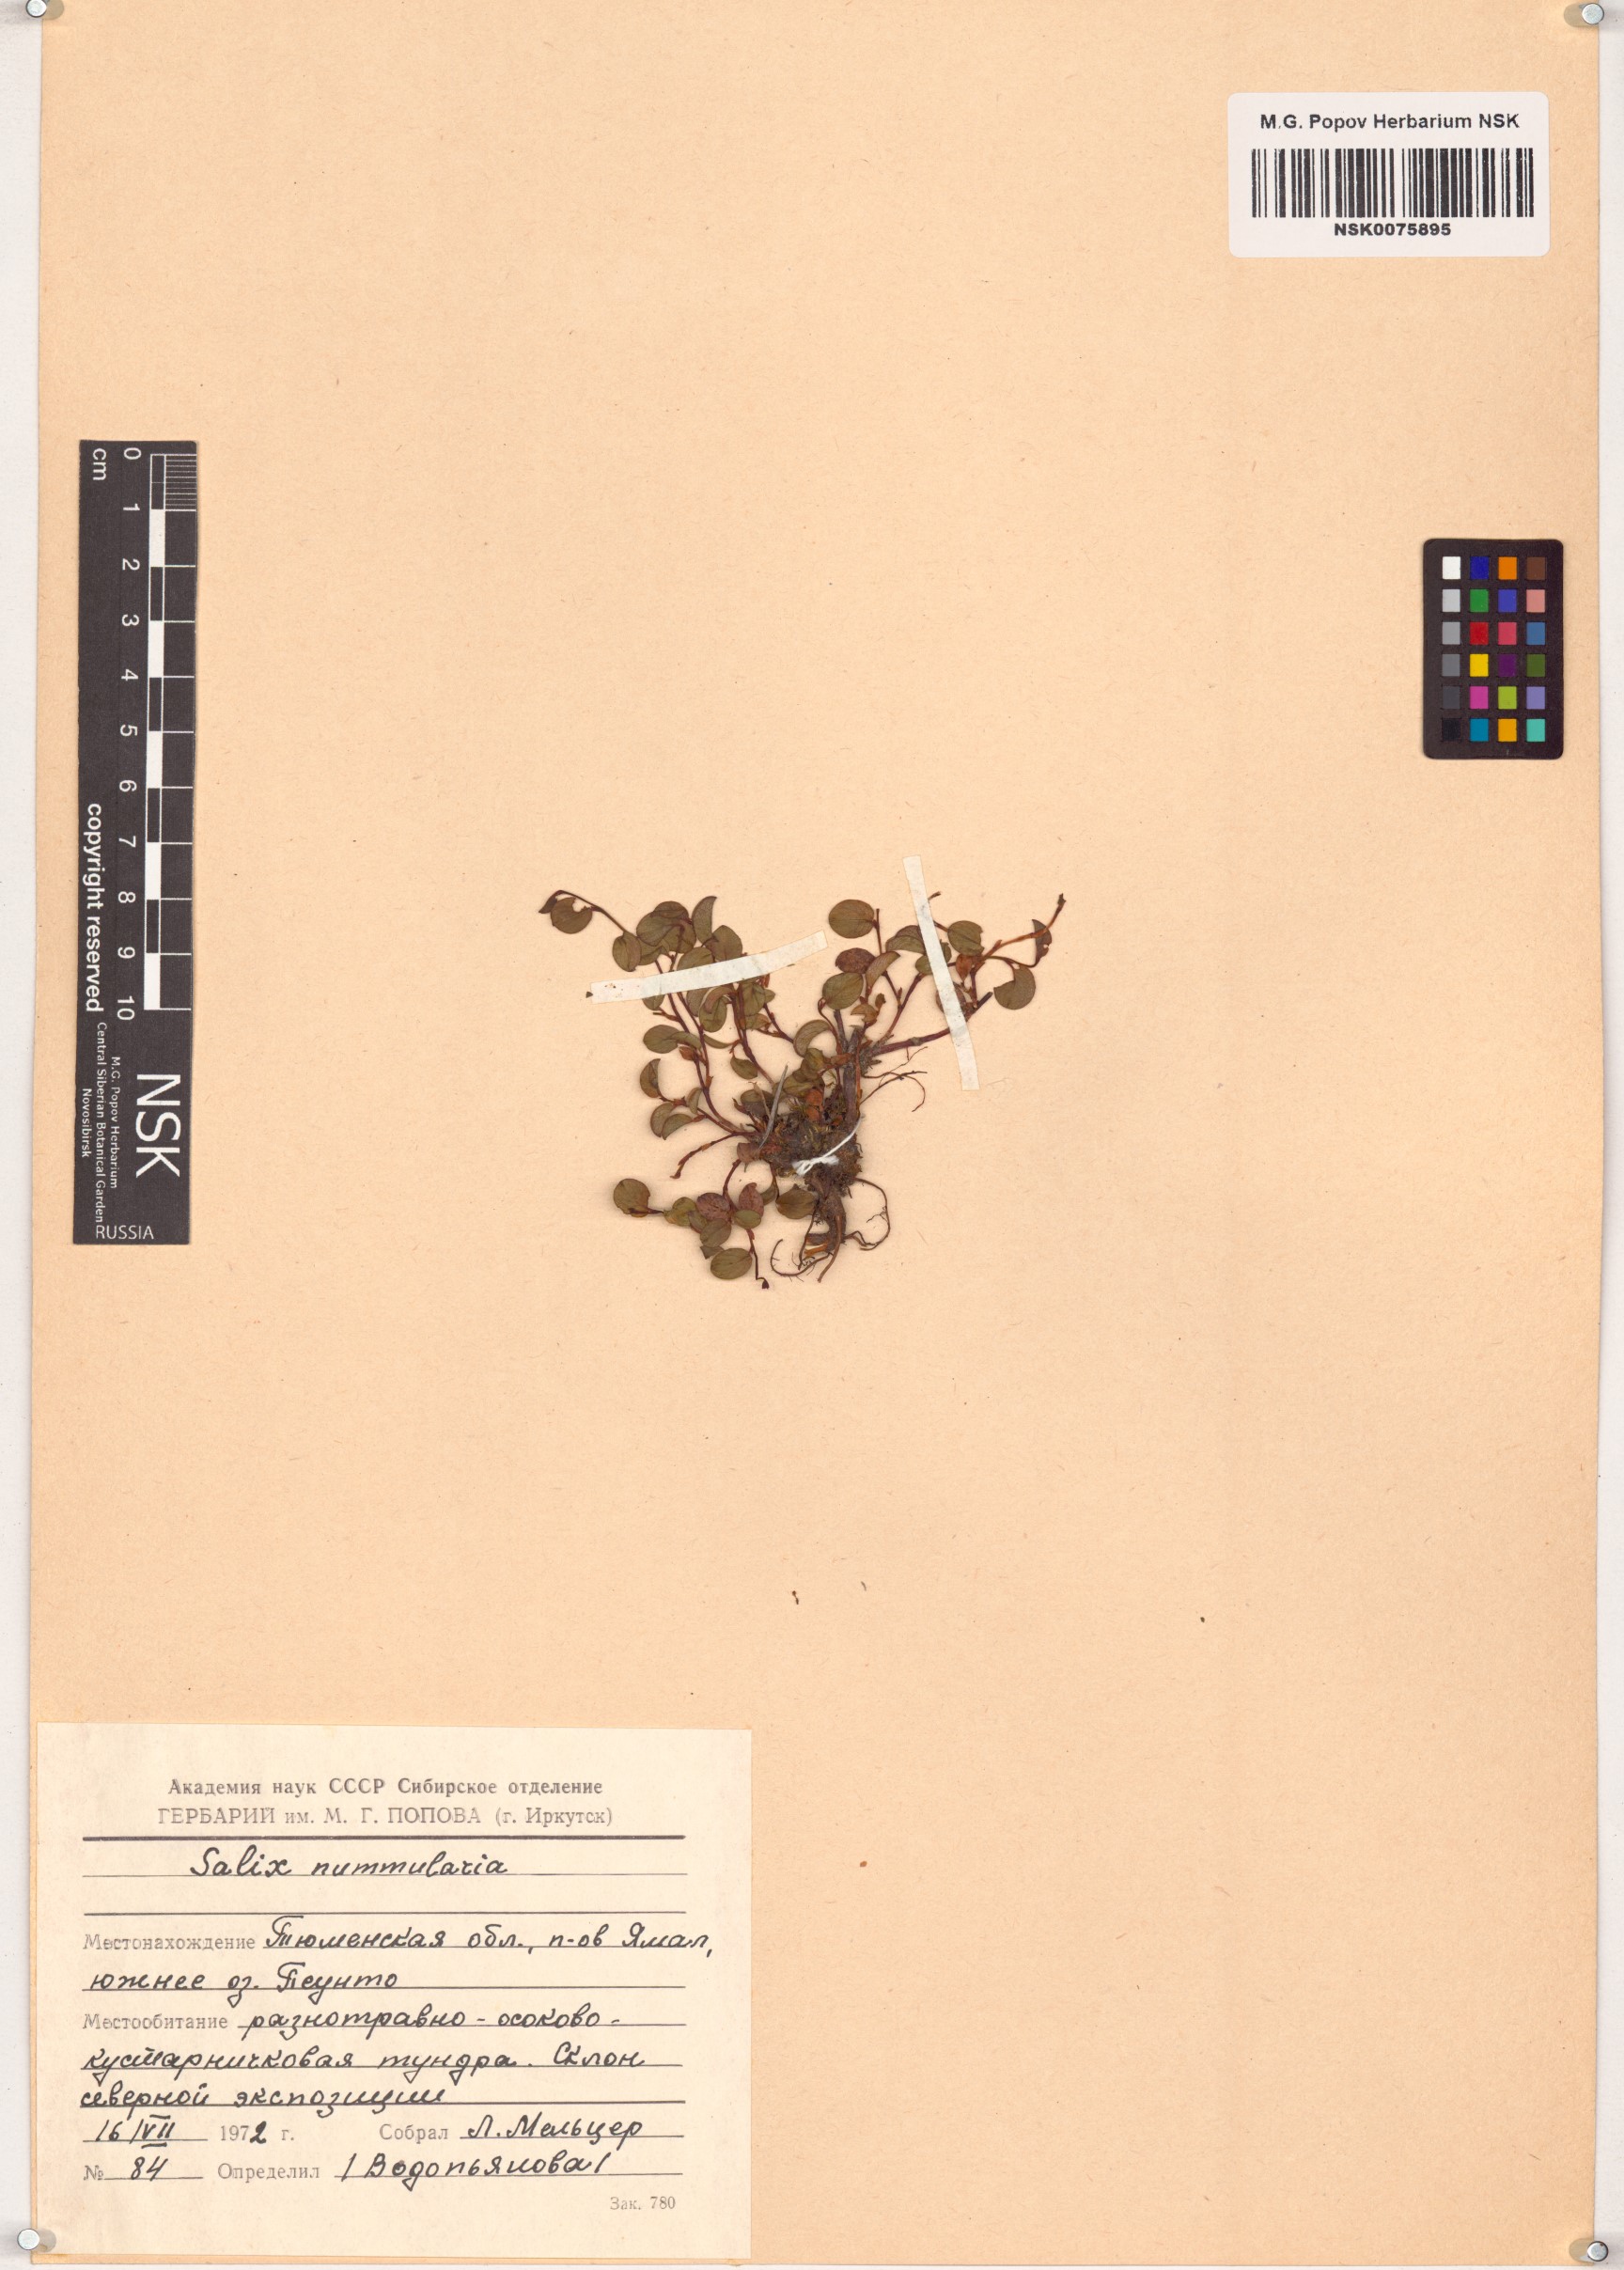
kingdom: Plantae
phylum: Tracheophyta
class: Magnoliopsida
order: Malpighiales
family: Salicaceae
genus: Salix
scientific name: Salix nummularia
